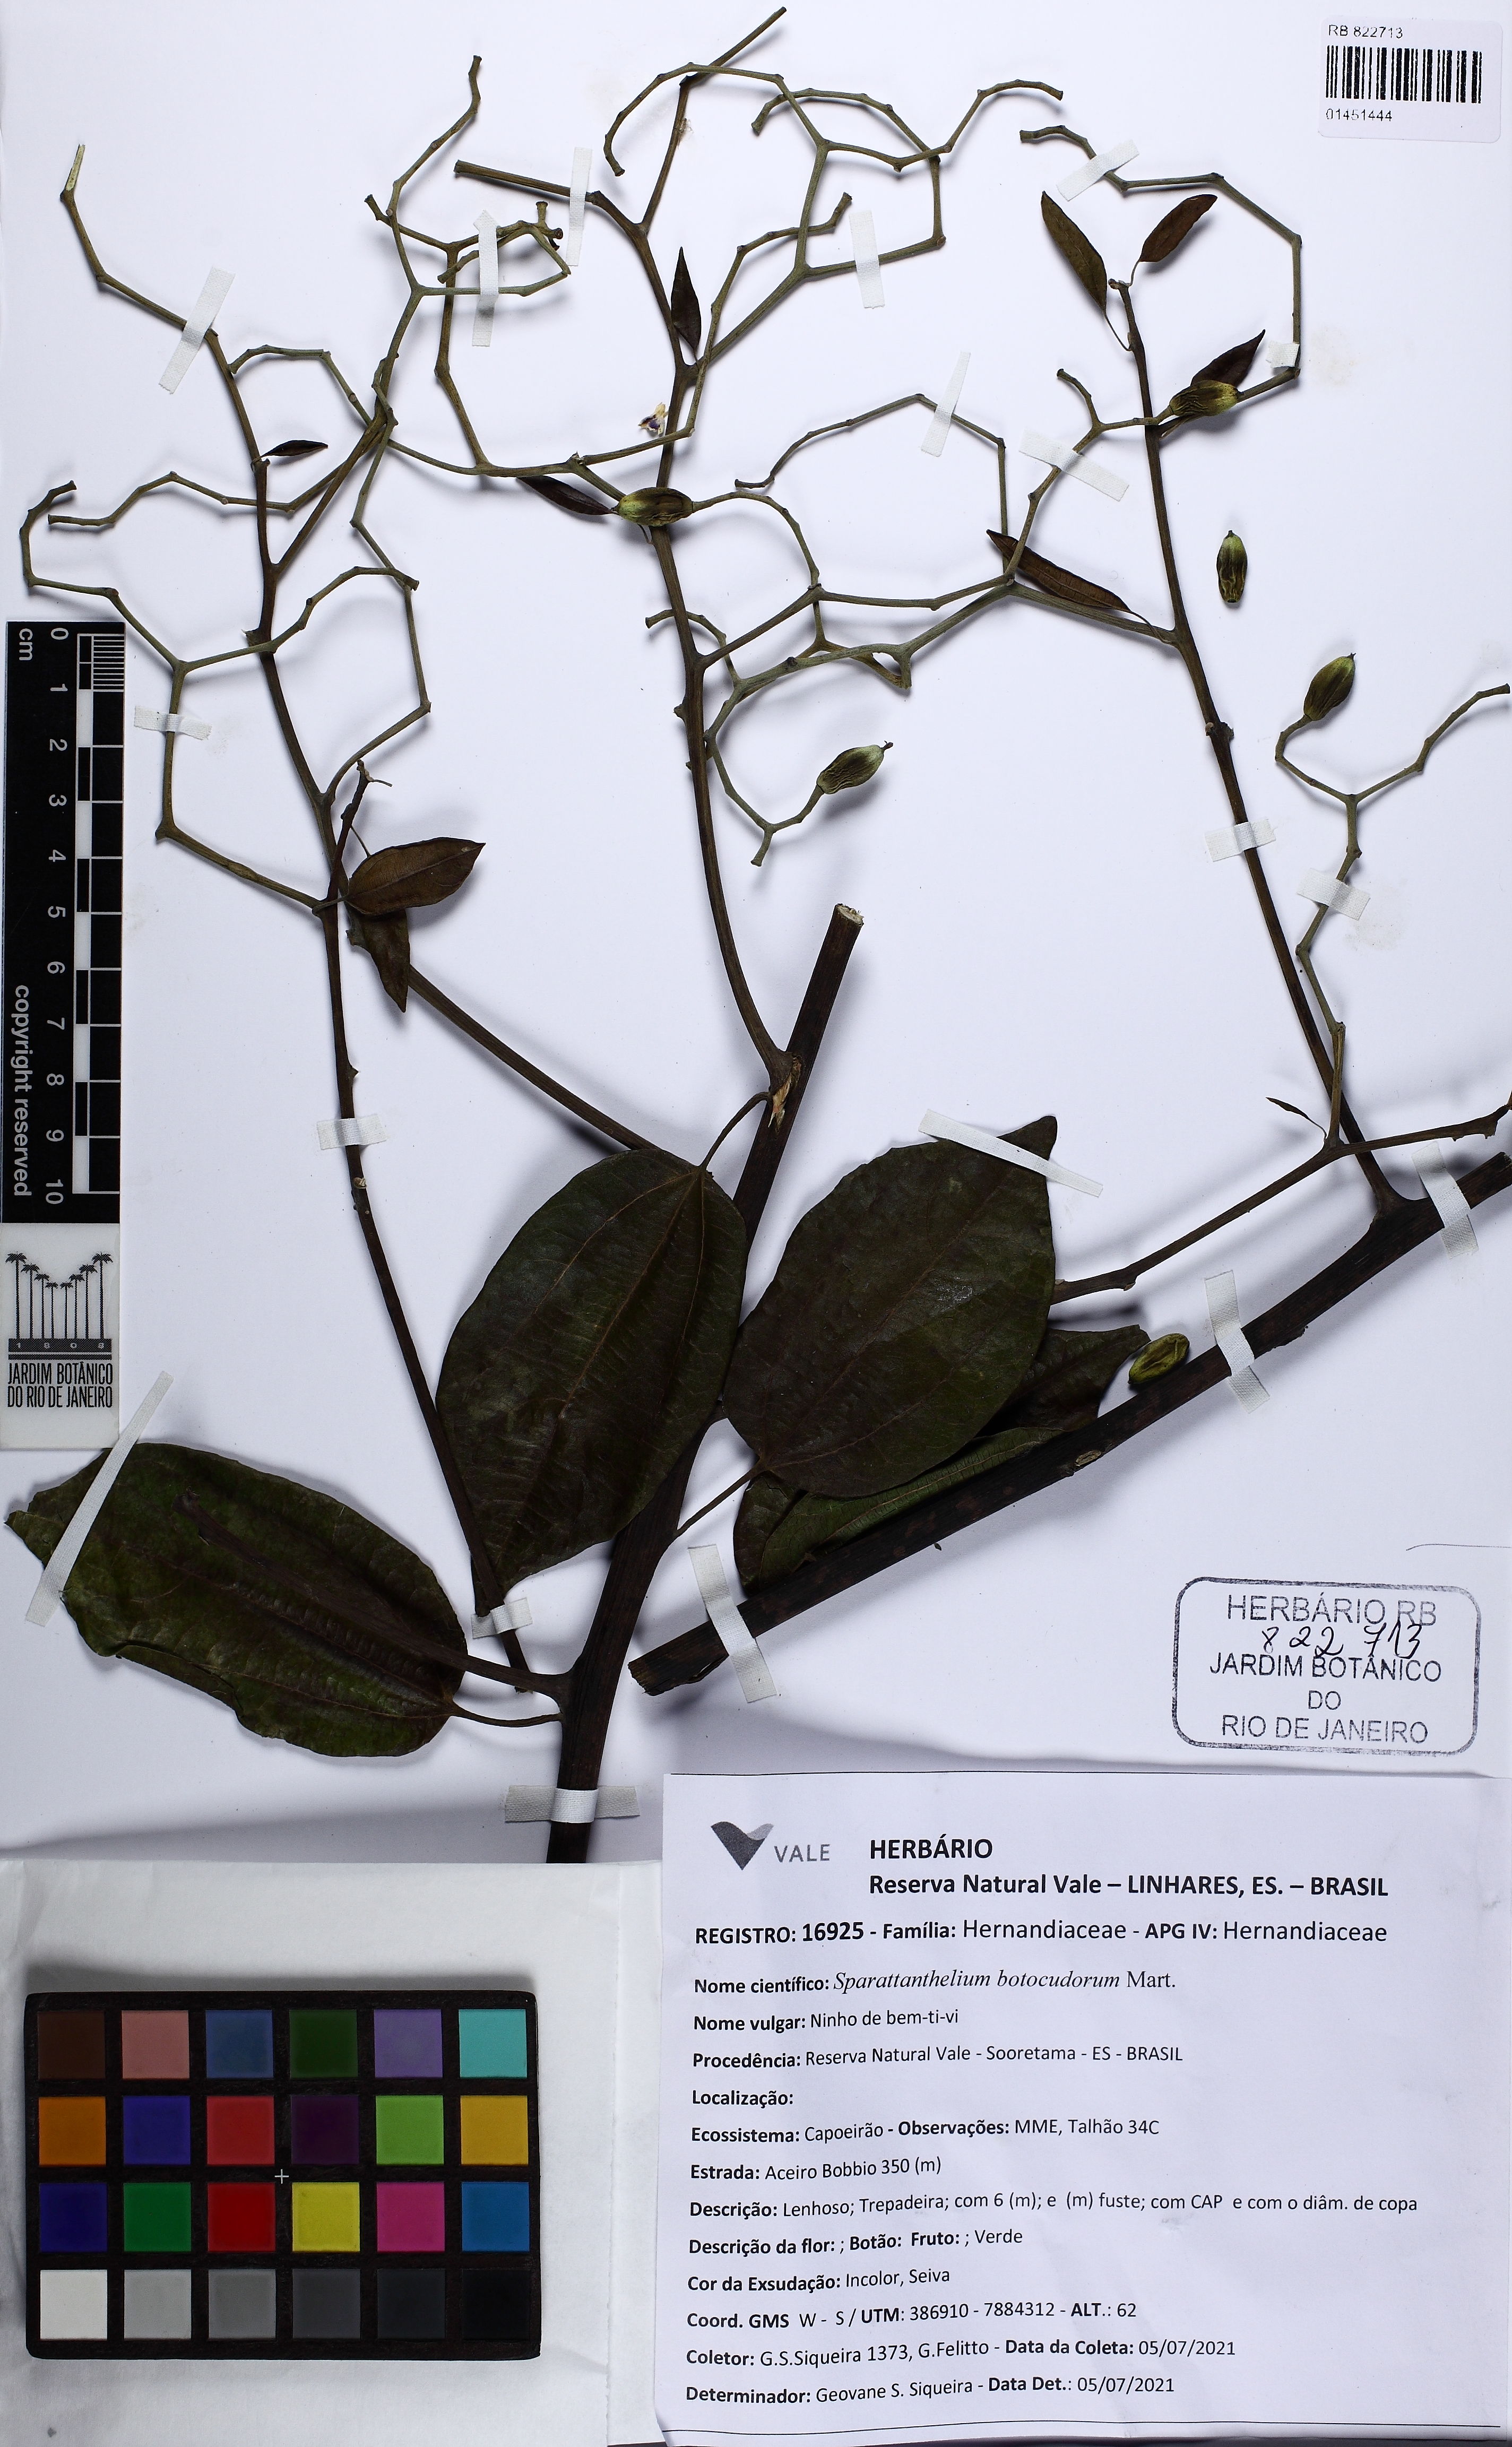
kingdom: Plantae
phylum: Tracheophyta
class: Magnoliopsida
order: Laurales
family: Hernandiaceae
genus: Sparattanthelium
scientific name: Sparattanthelium botocudorum
